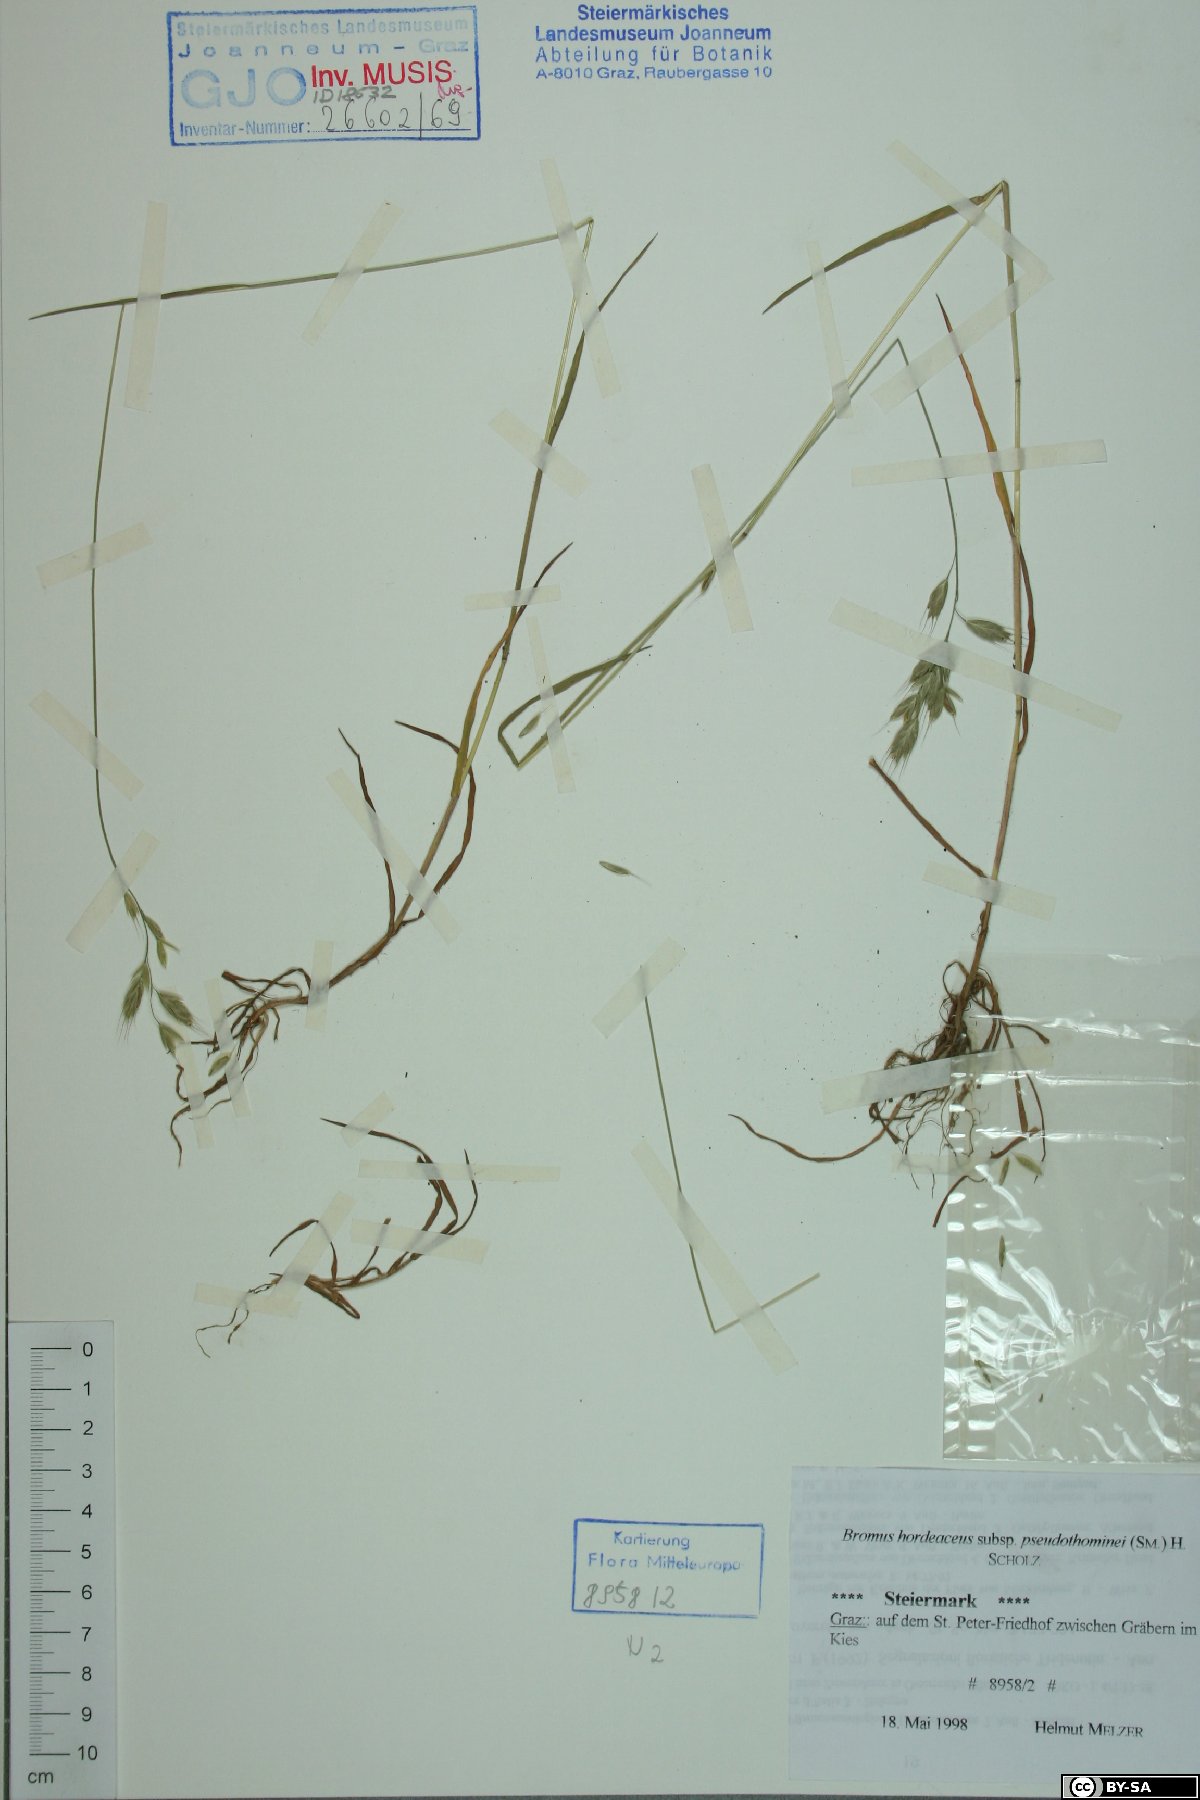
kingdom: Plantae
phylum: Tracheophyta
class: Liliopsida
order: Poales
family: Poaceae
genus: Bromus
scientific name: Bromus ferronii
